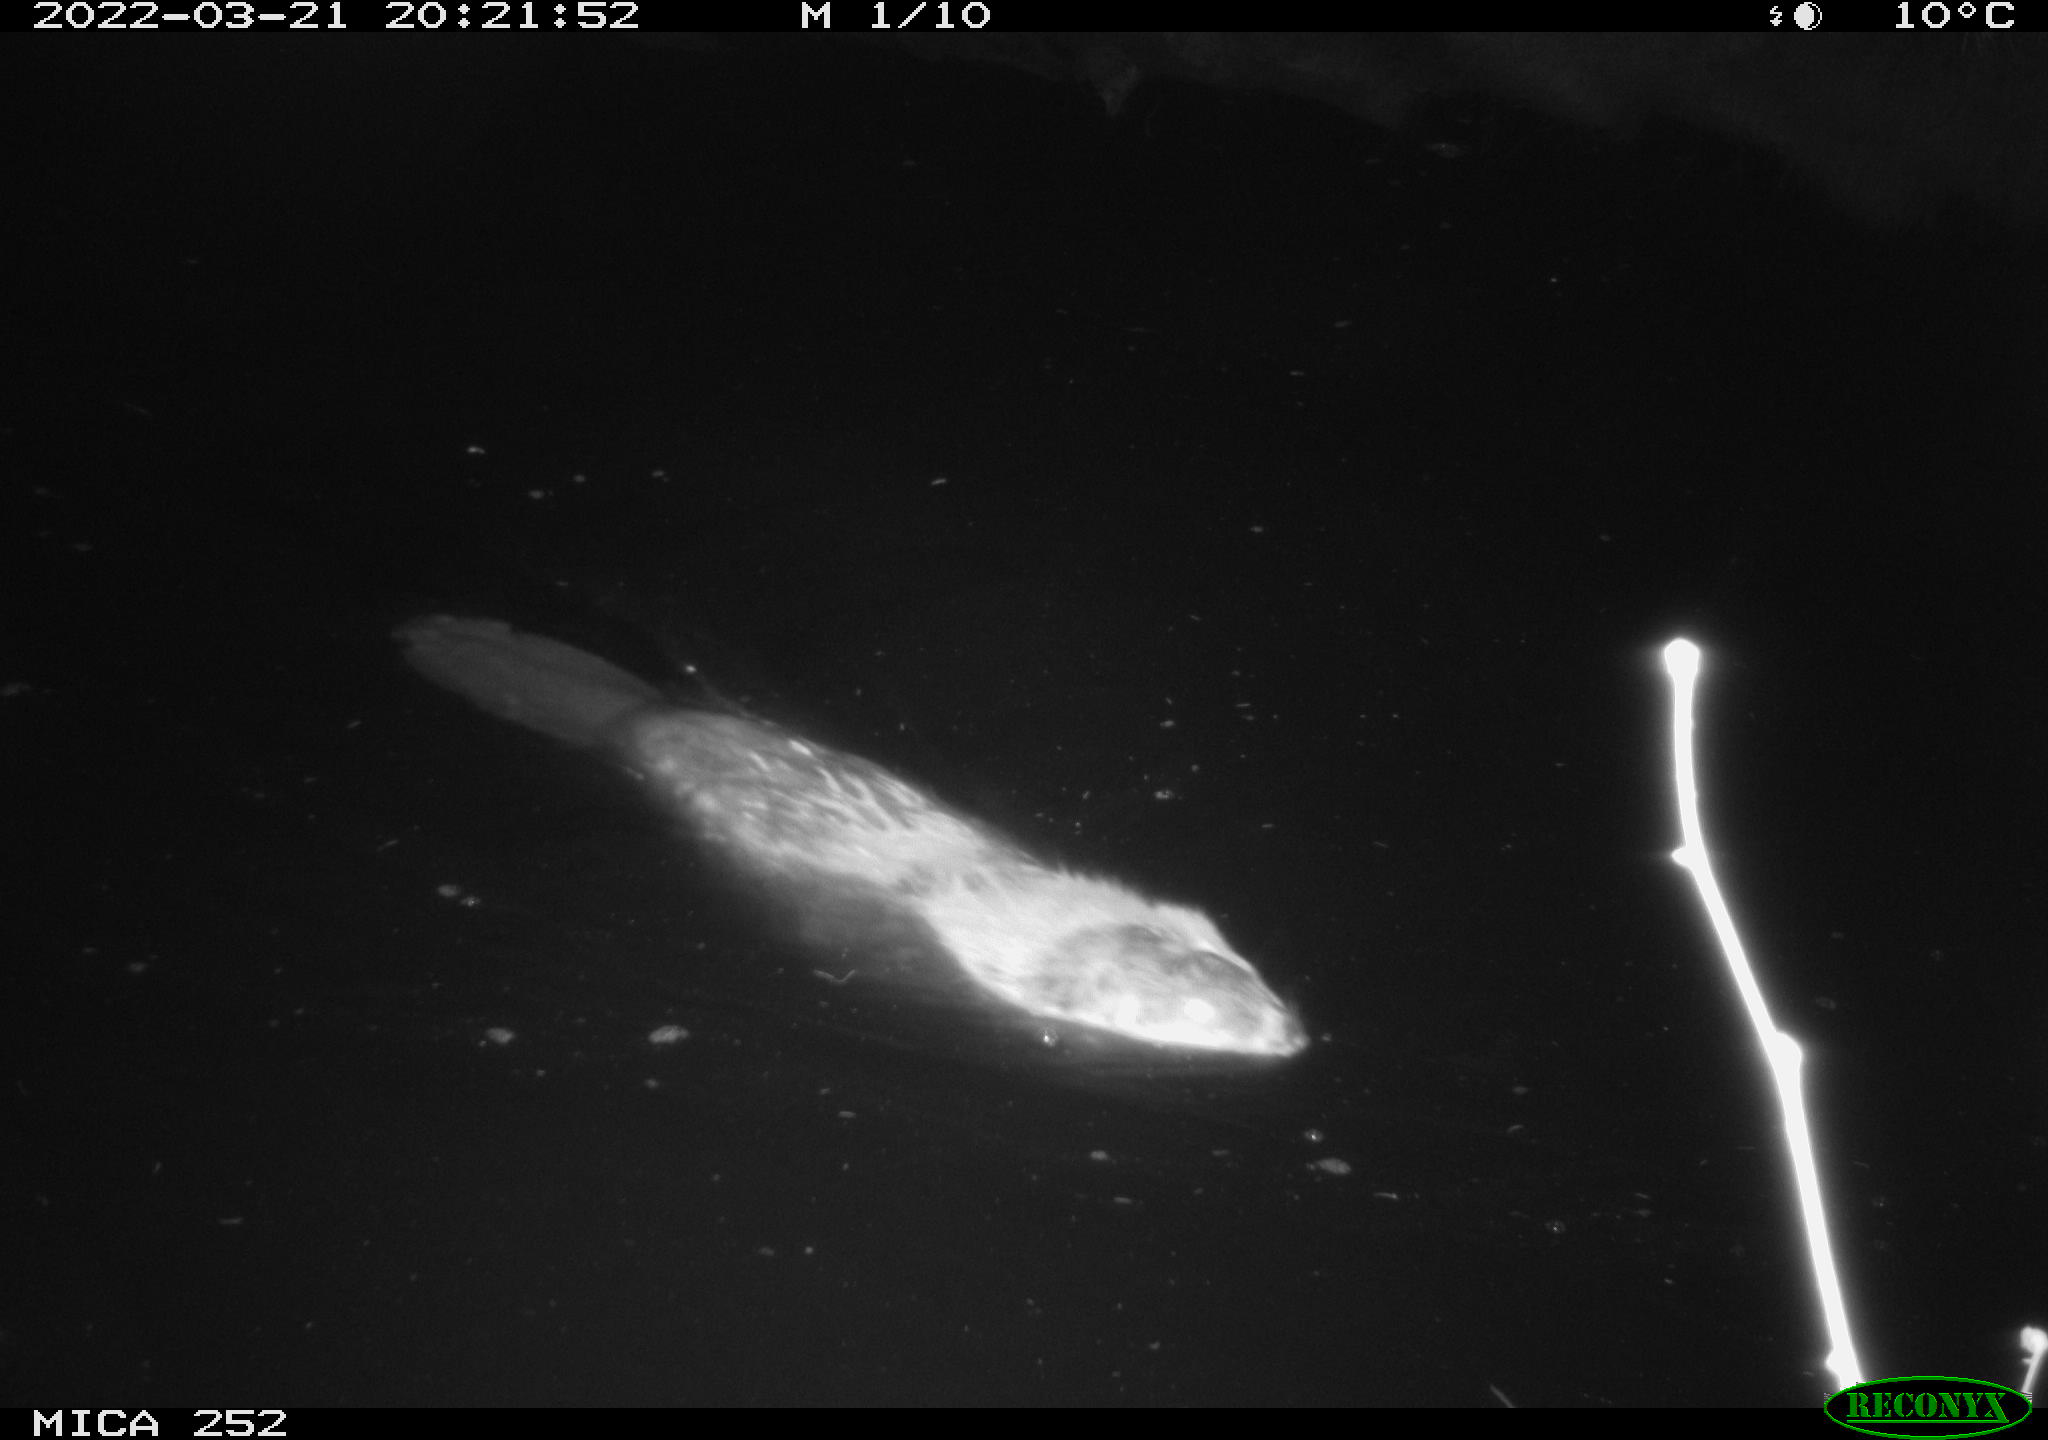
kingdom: Animalia
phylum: Chordata
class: Mammalia
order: Rodentia
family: Castoridae
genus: Castor
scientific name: Castor fiber
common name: Eurasian beaver
